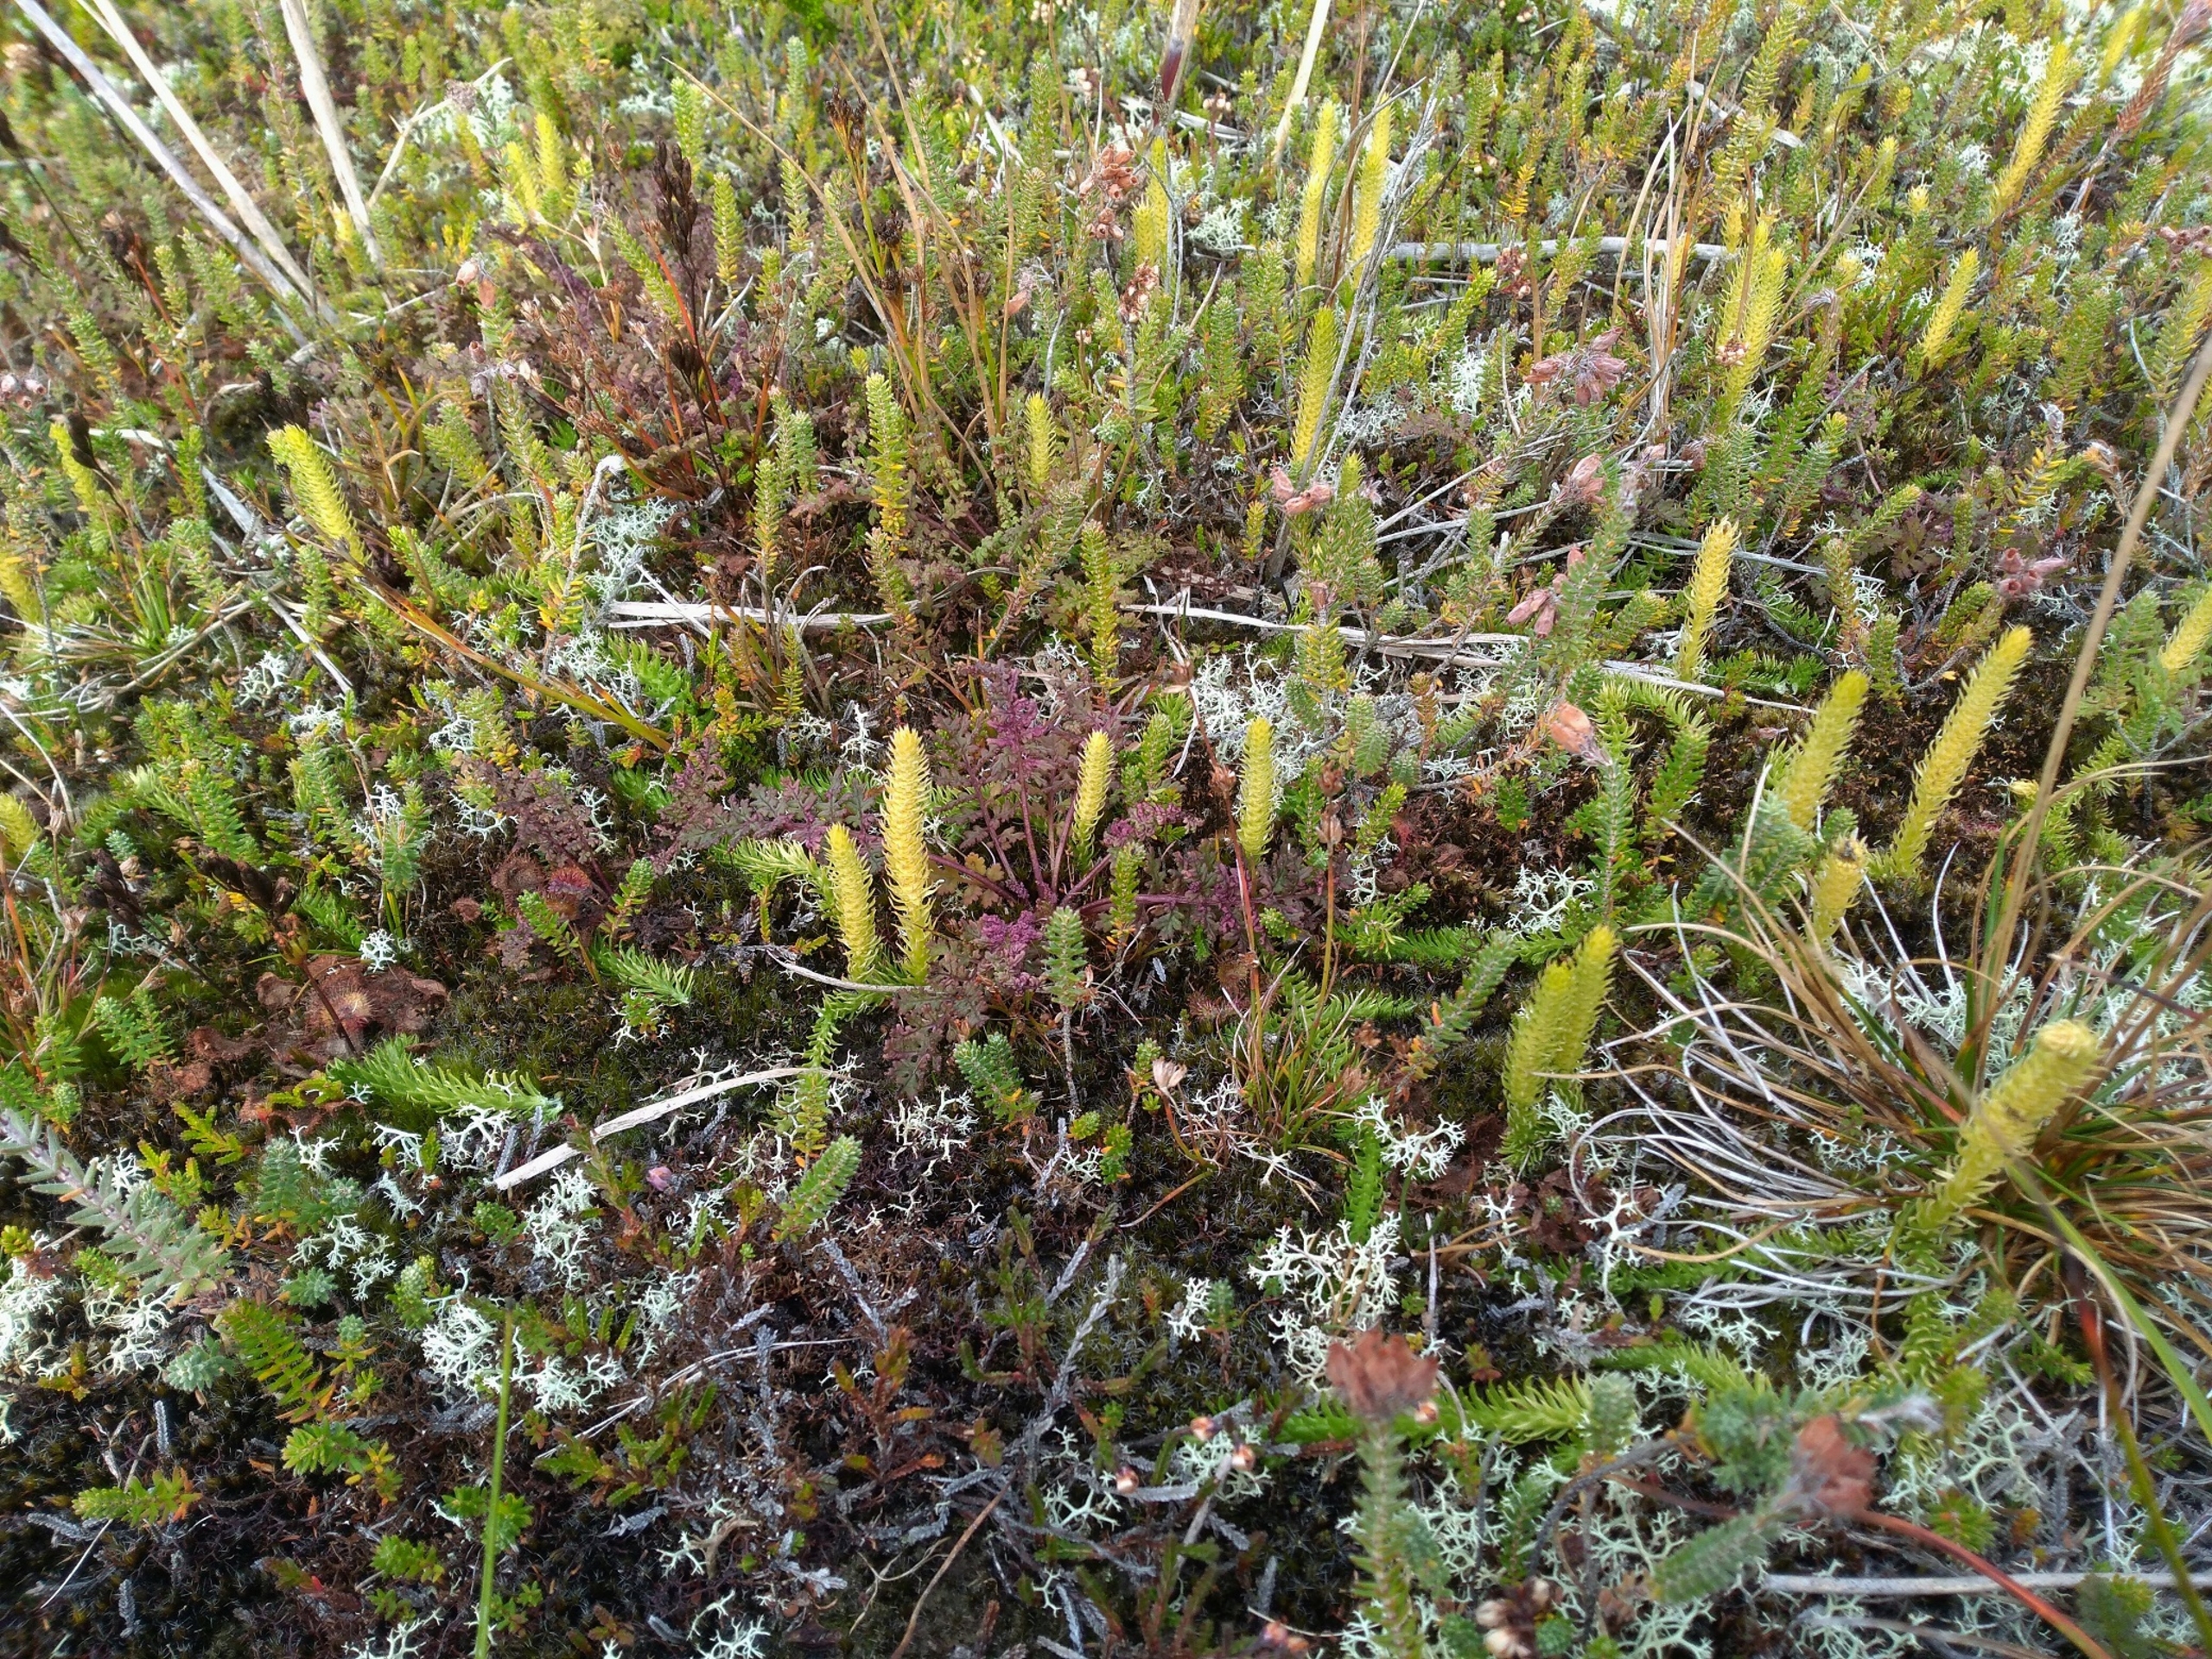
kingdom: Plantae
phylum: Tracheophyta
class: Lycopodiopsida
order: Lycopodiales
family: Lycopodiaceae
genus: Lycopodiella
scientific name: Lycopodiella inundata
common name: Liden ulvefod
